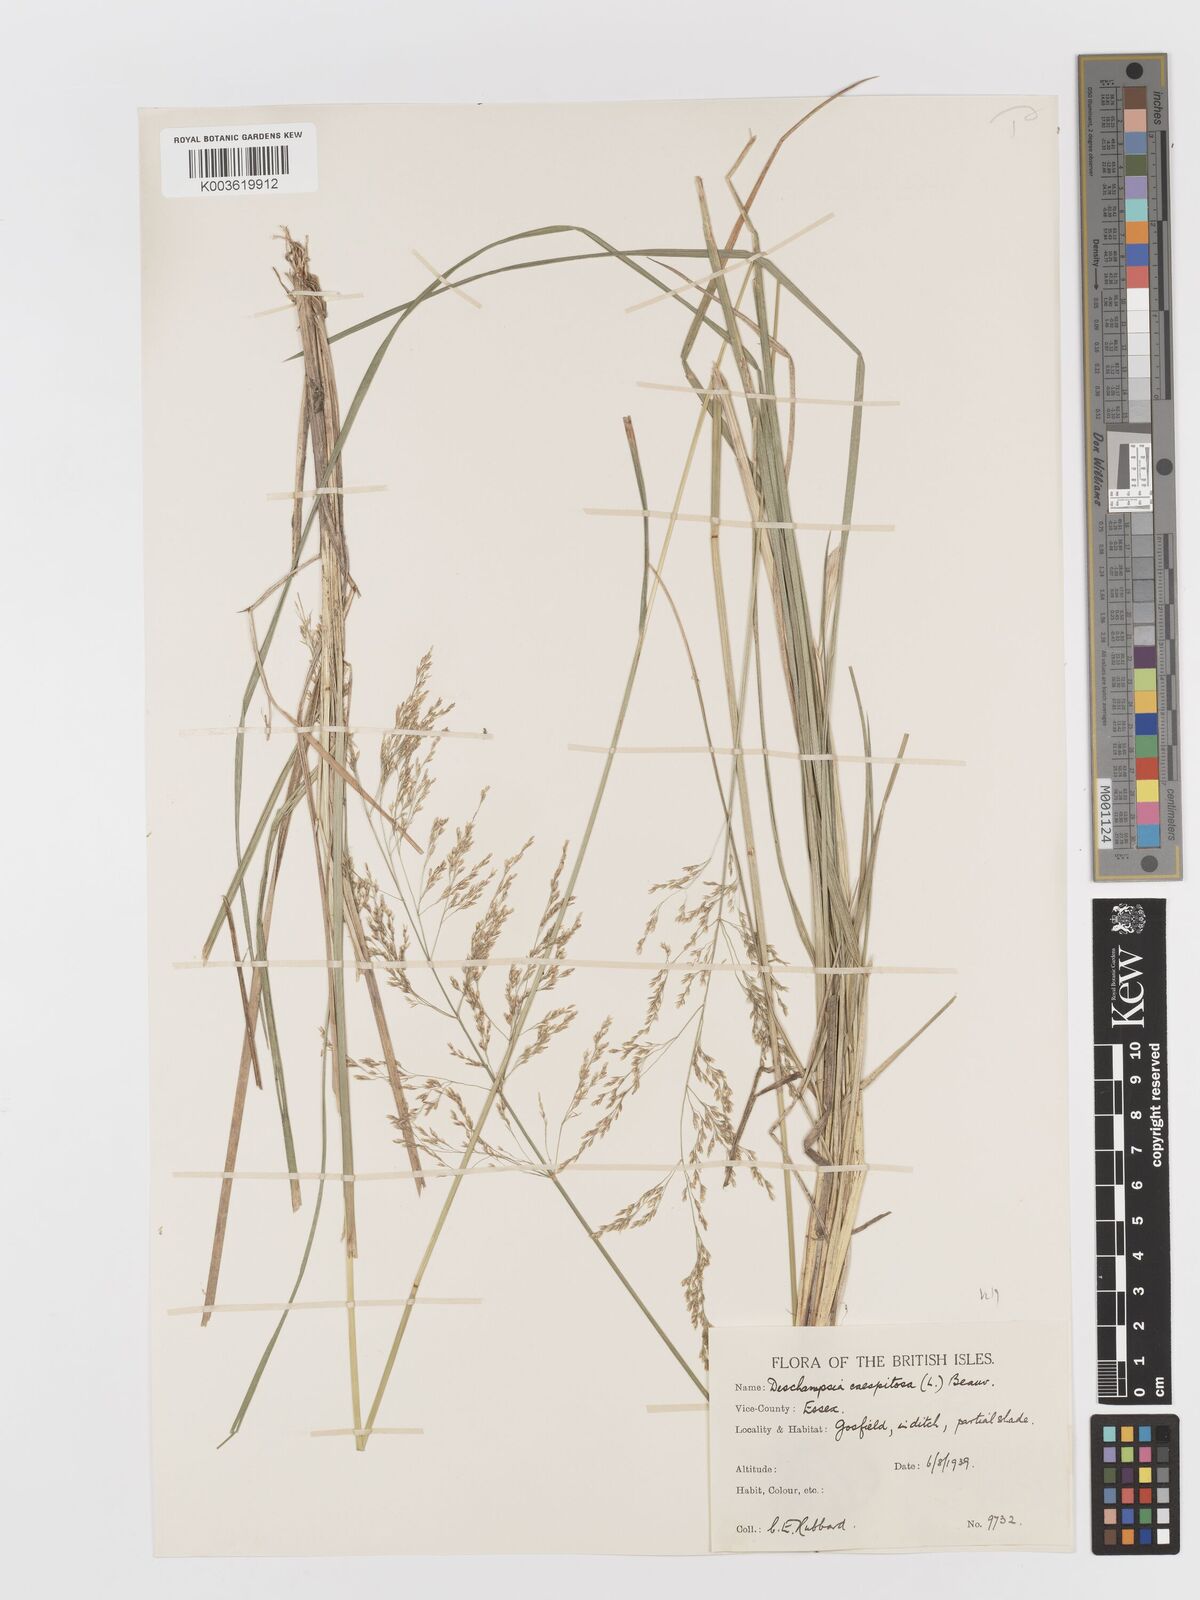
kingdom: Plantae
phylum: Tracheophyta
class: Liliopsida
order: Poales
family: Poaceae
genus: Deschampsia
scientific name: Deschampsia
